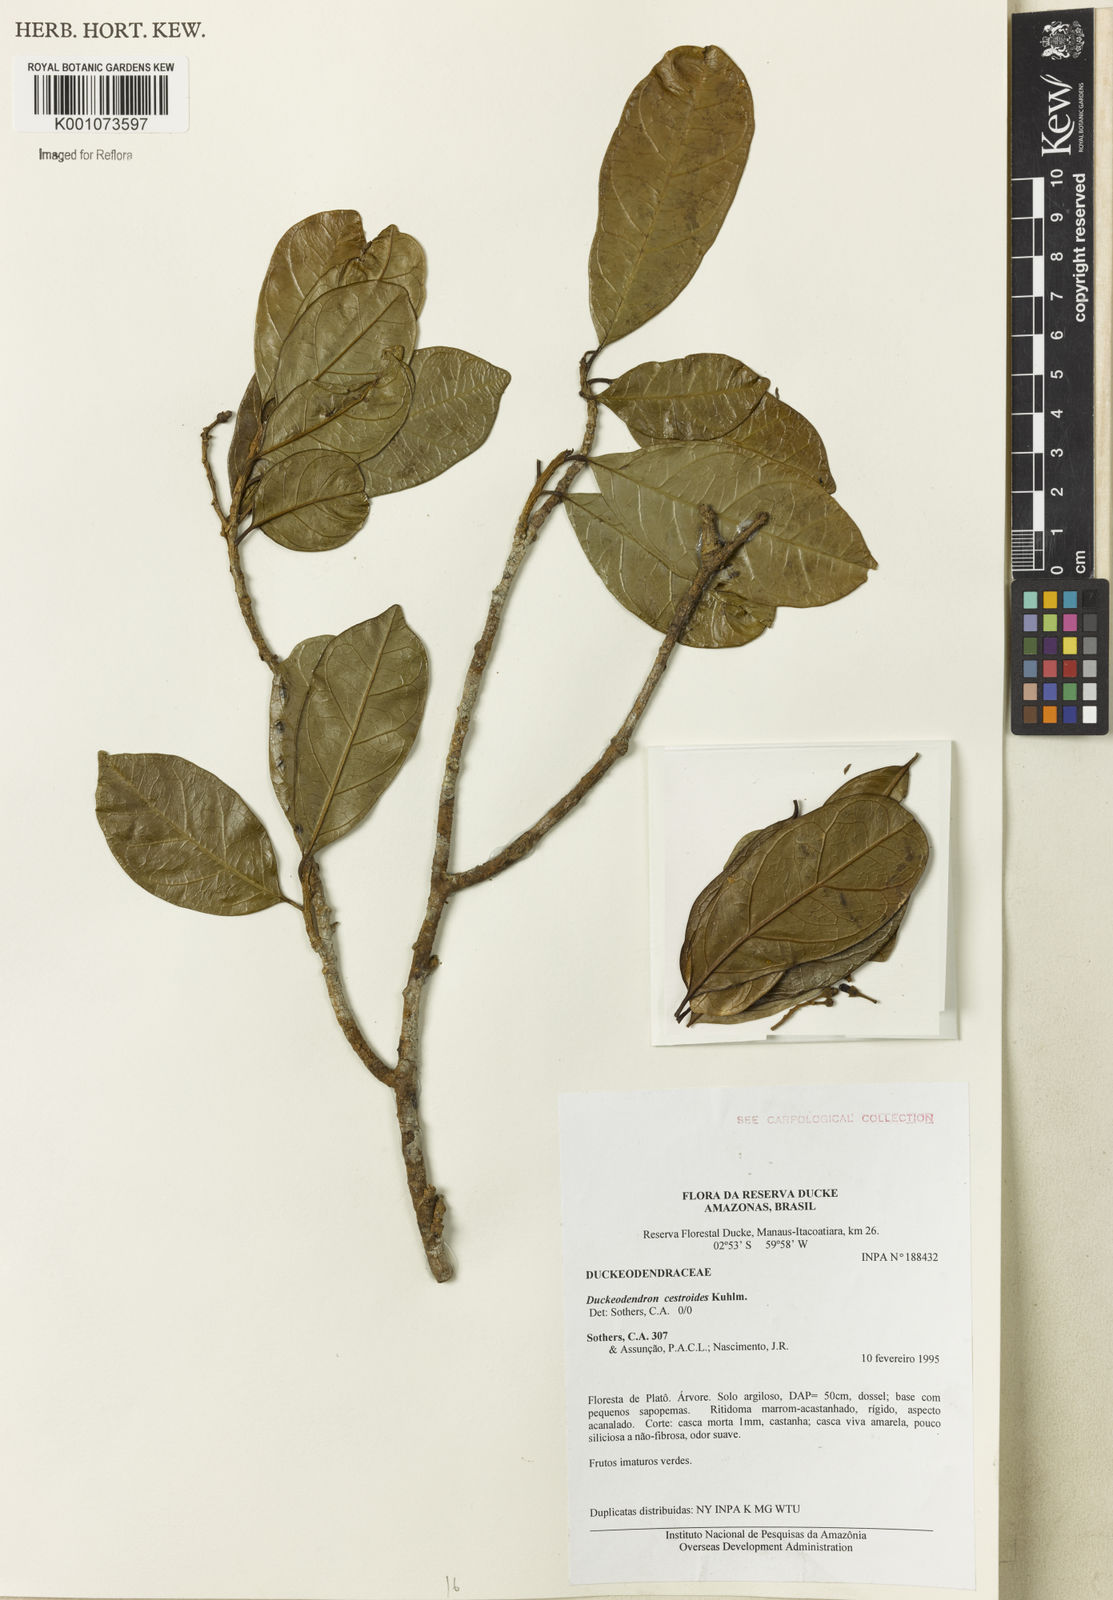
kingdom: Plantae
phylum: Tracheophyta
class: Magnoliopsida
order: Solanales
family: Solanaceae
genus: Duckeodendron
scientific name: Duckeodendron cestroides
